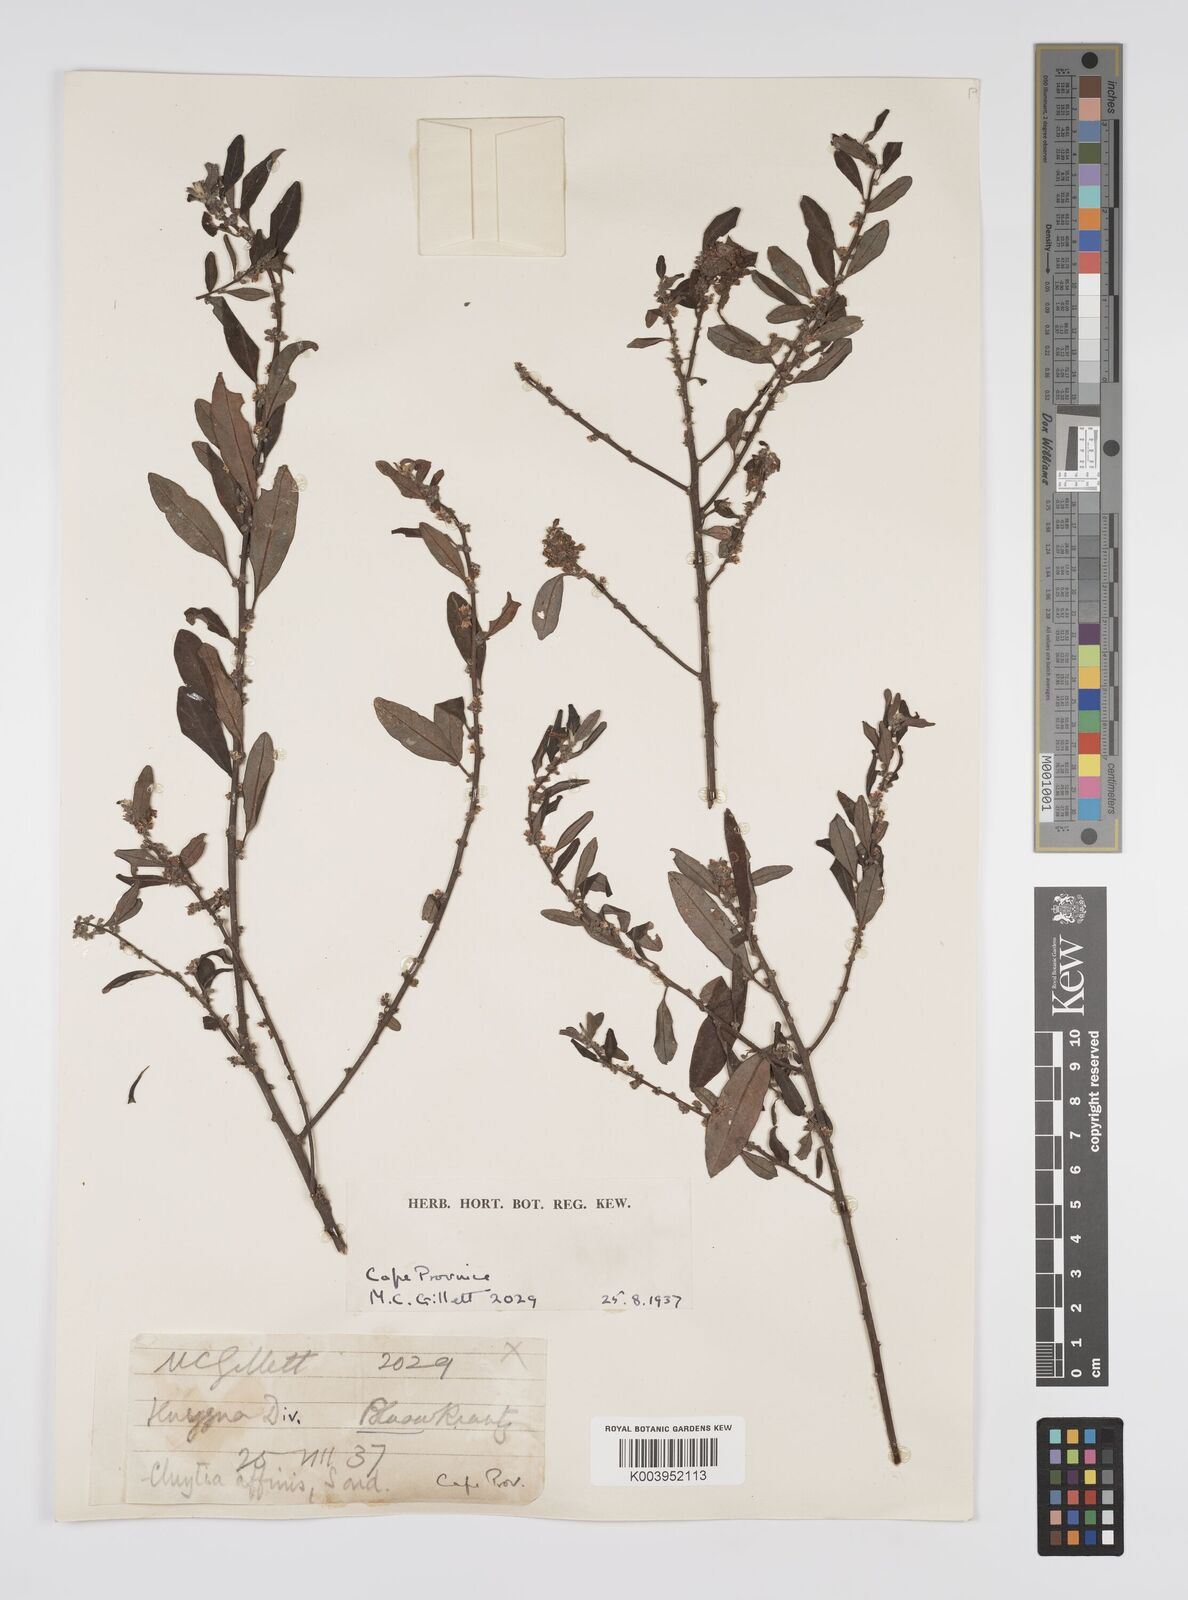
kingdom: Plantae
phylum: Tracheophyta
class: Magnoliopsida
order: Malpighiales
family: Peraceae
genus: Clutia
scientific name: Clutia affinis
